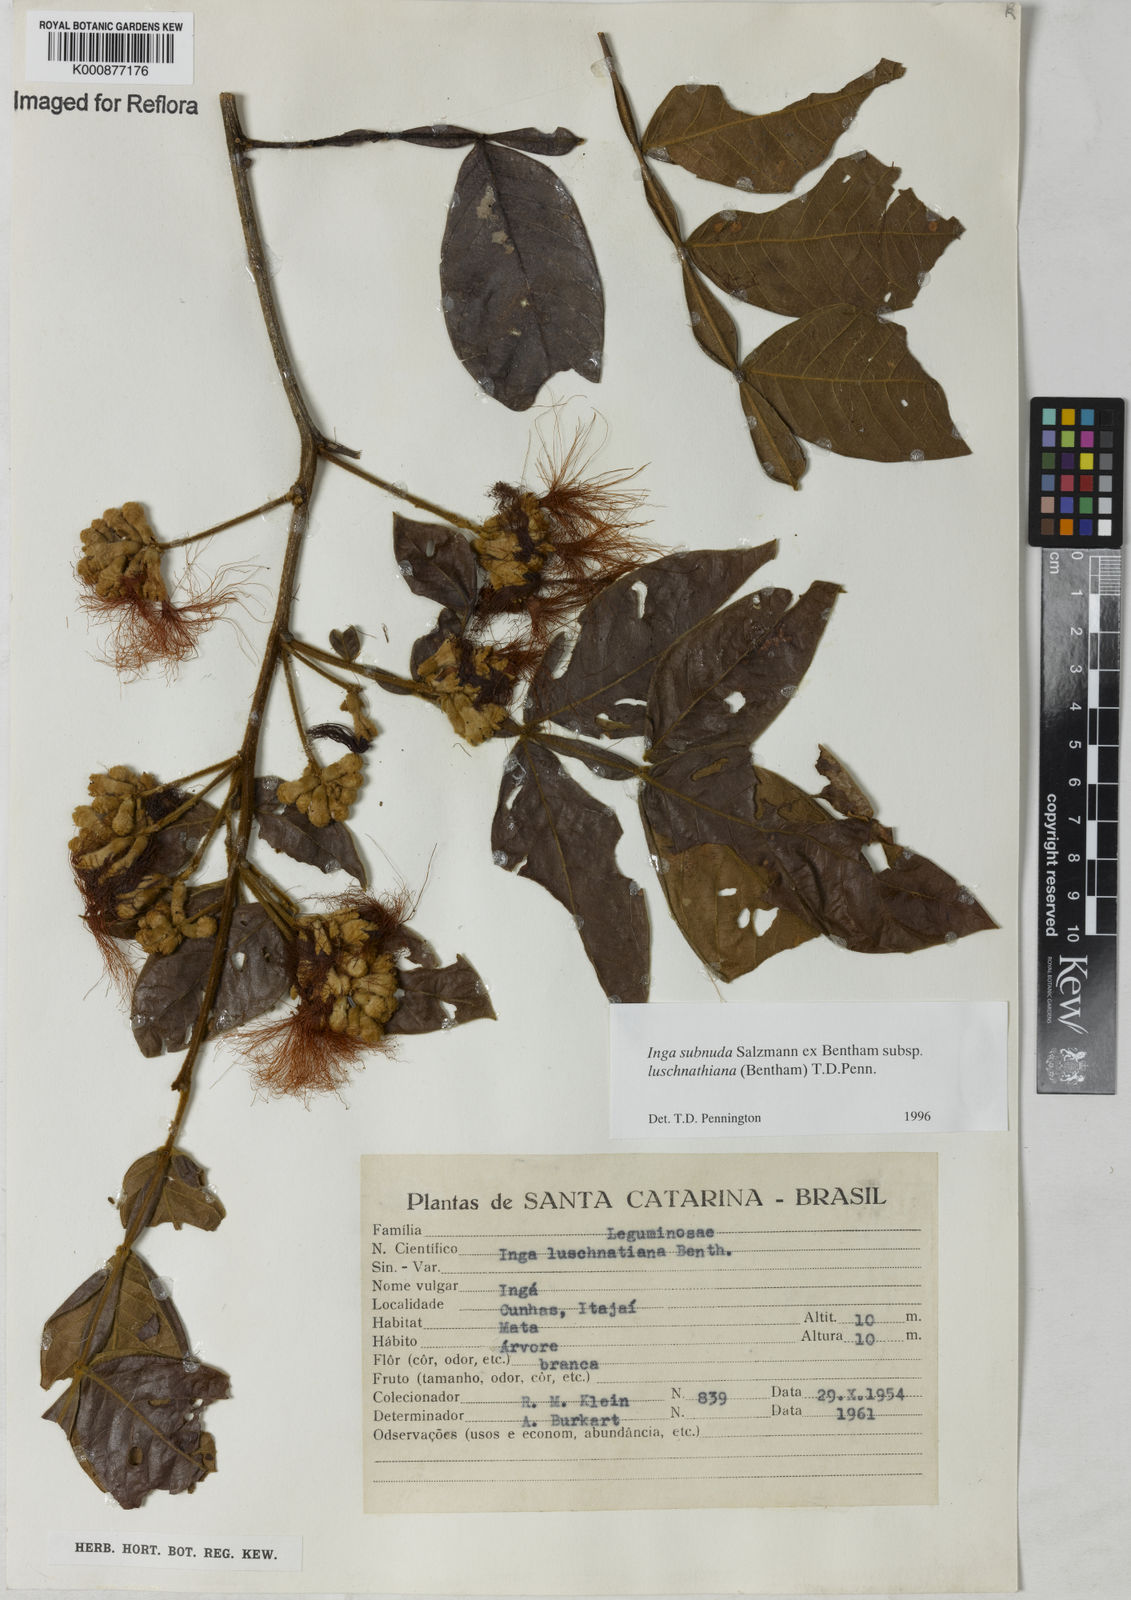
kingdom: Plantae
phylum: Tracheophyta
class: Magnoliopsida
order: Fabales
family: Fabaceae
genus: Inga
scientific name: Inga subnuda
